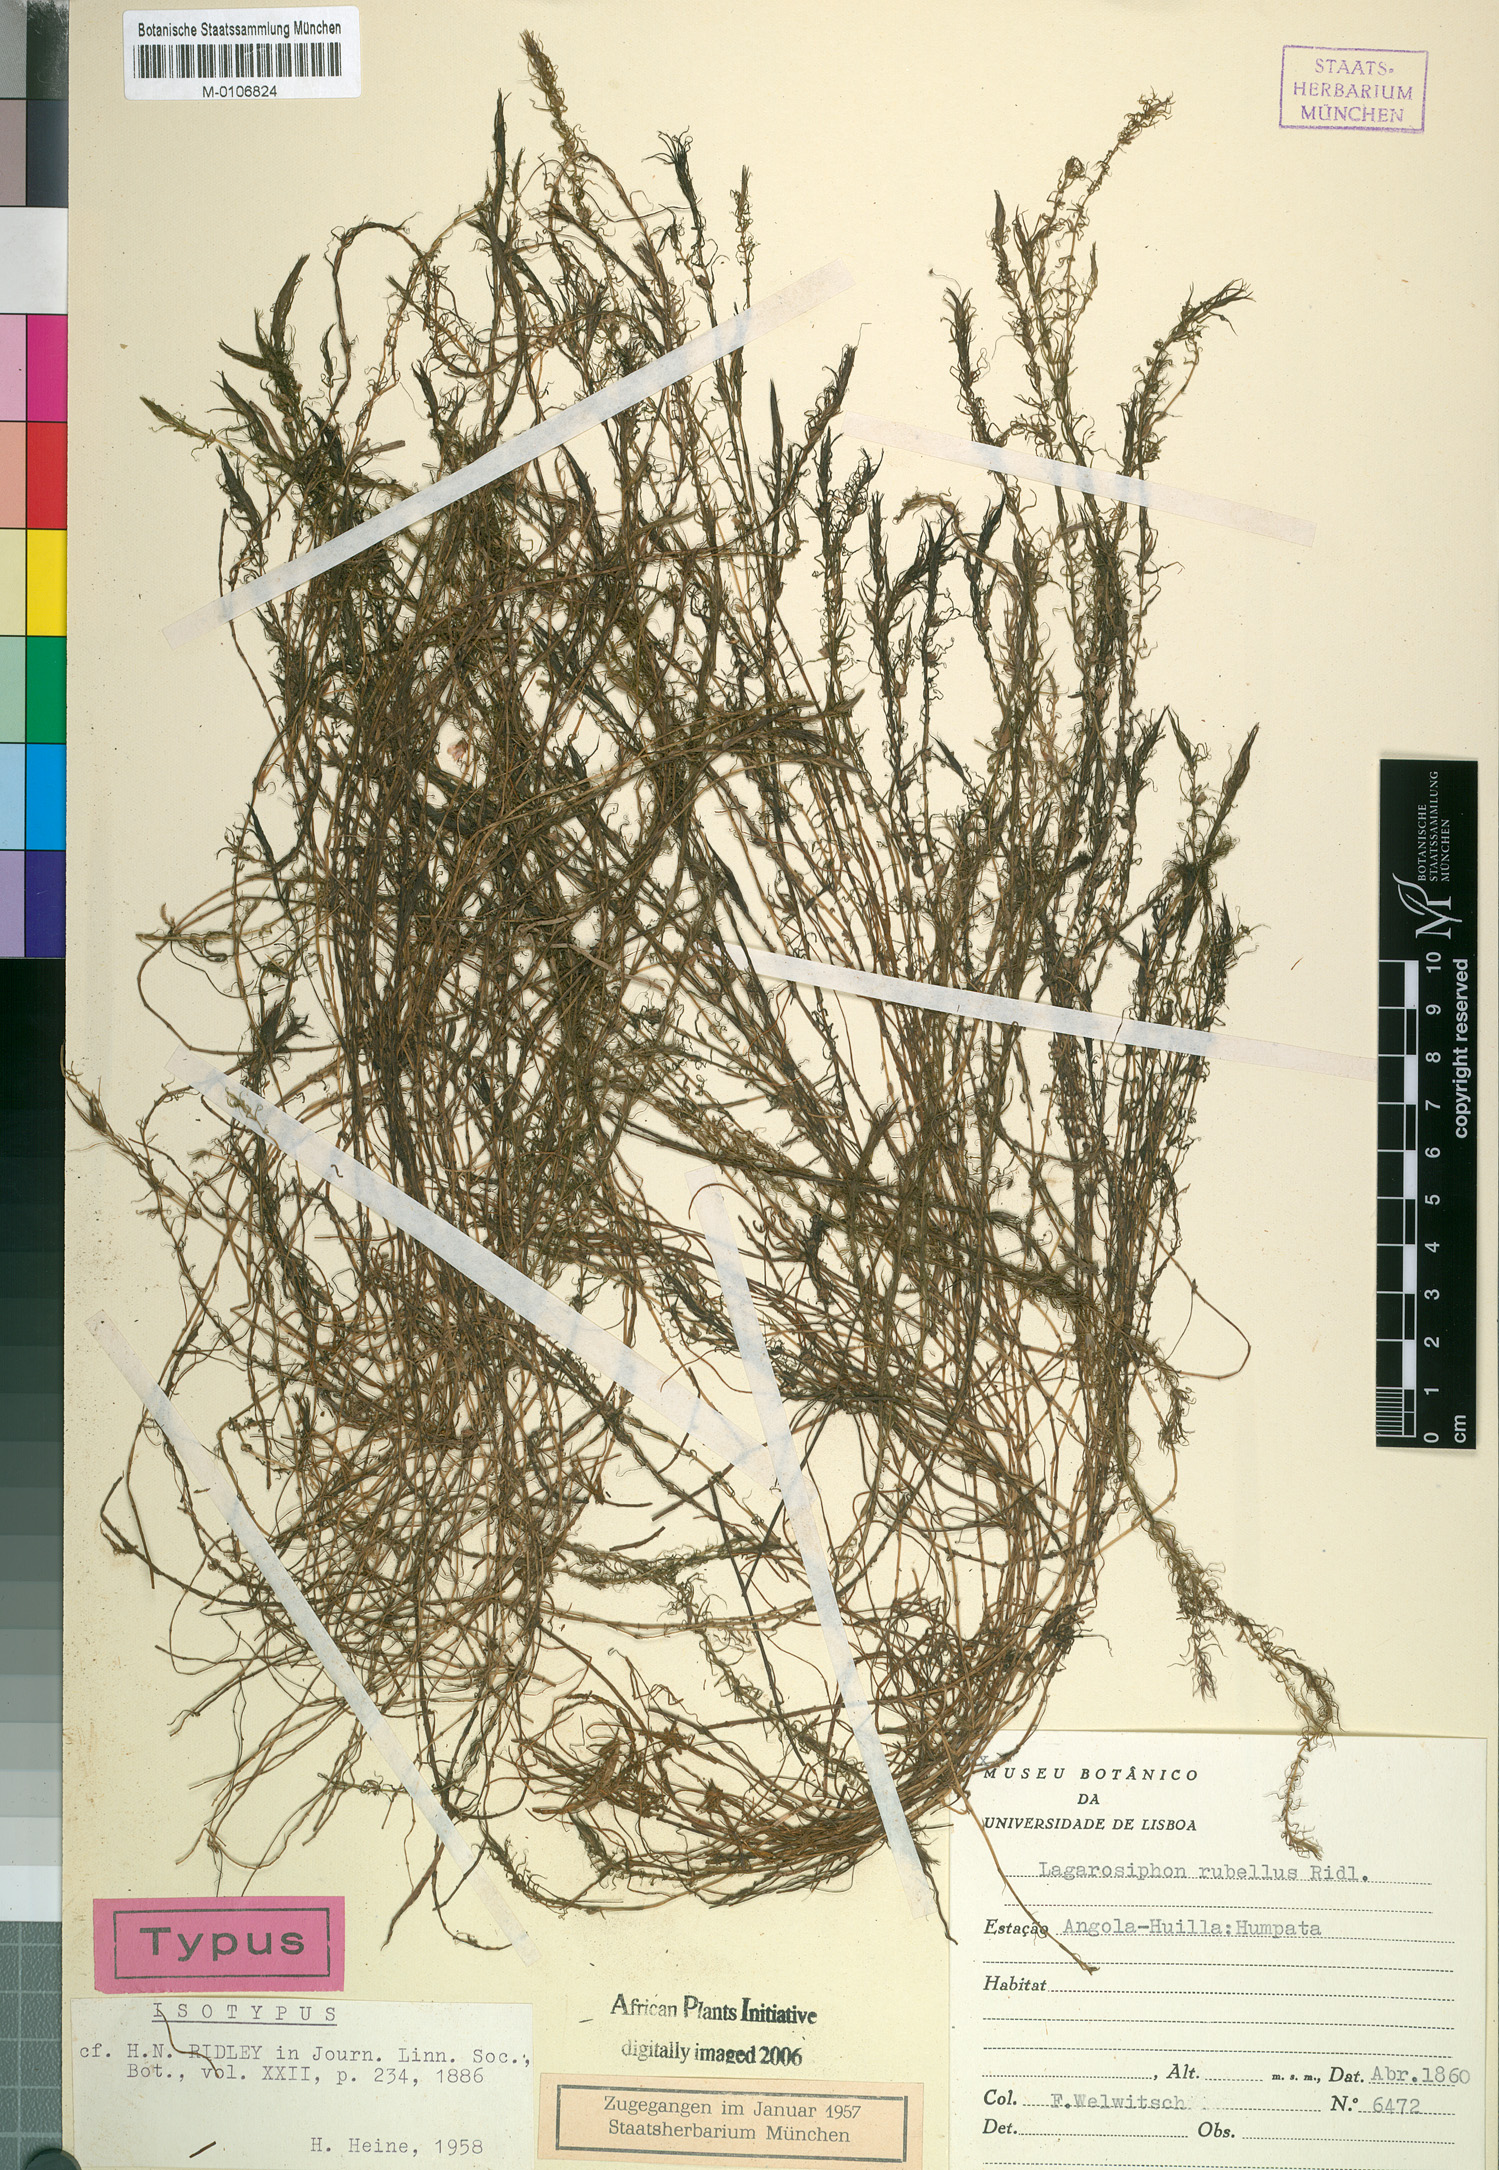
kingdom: Plantae
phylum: Tracheophyta
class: Liliopsida
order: Alismatales
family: Hydrocharitaceae
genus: Lagarosiphon
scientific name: Lagarosiphon rubellus
